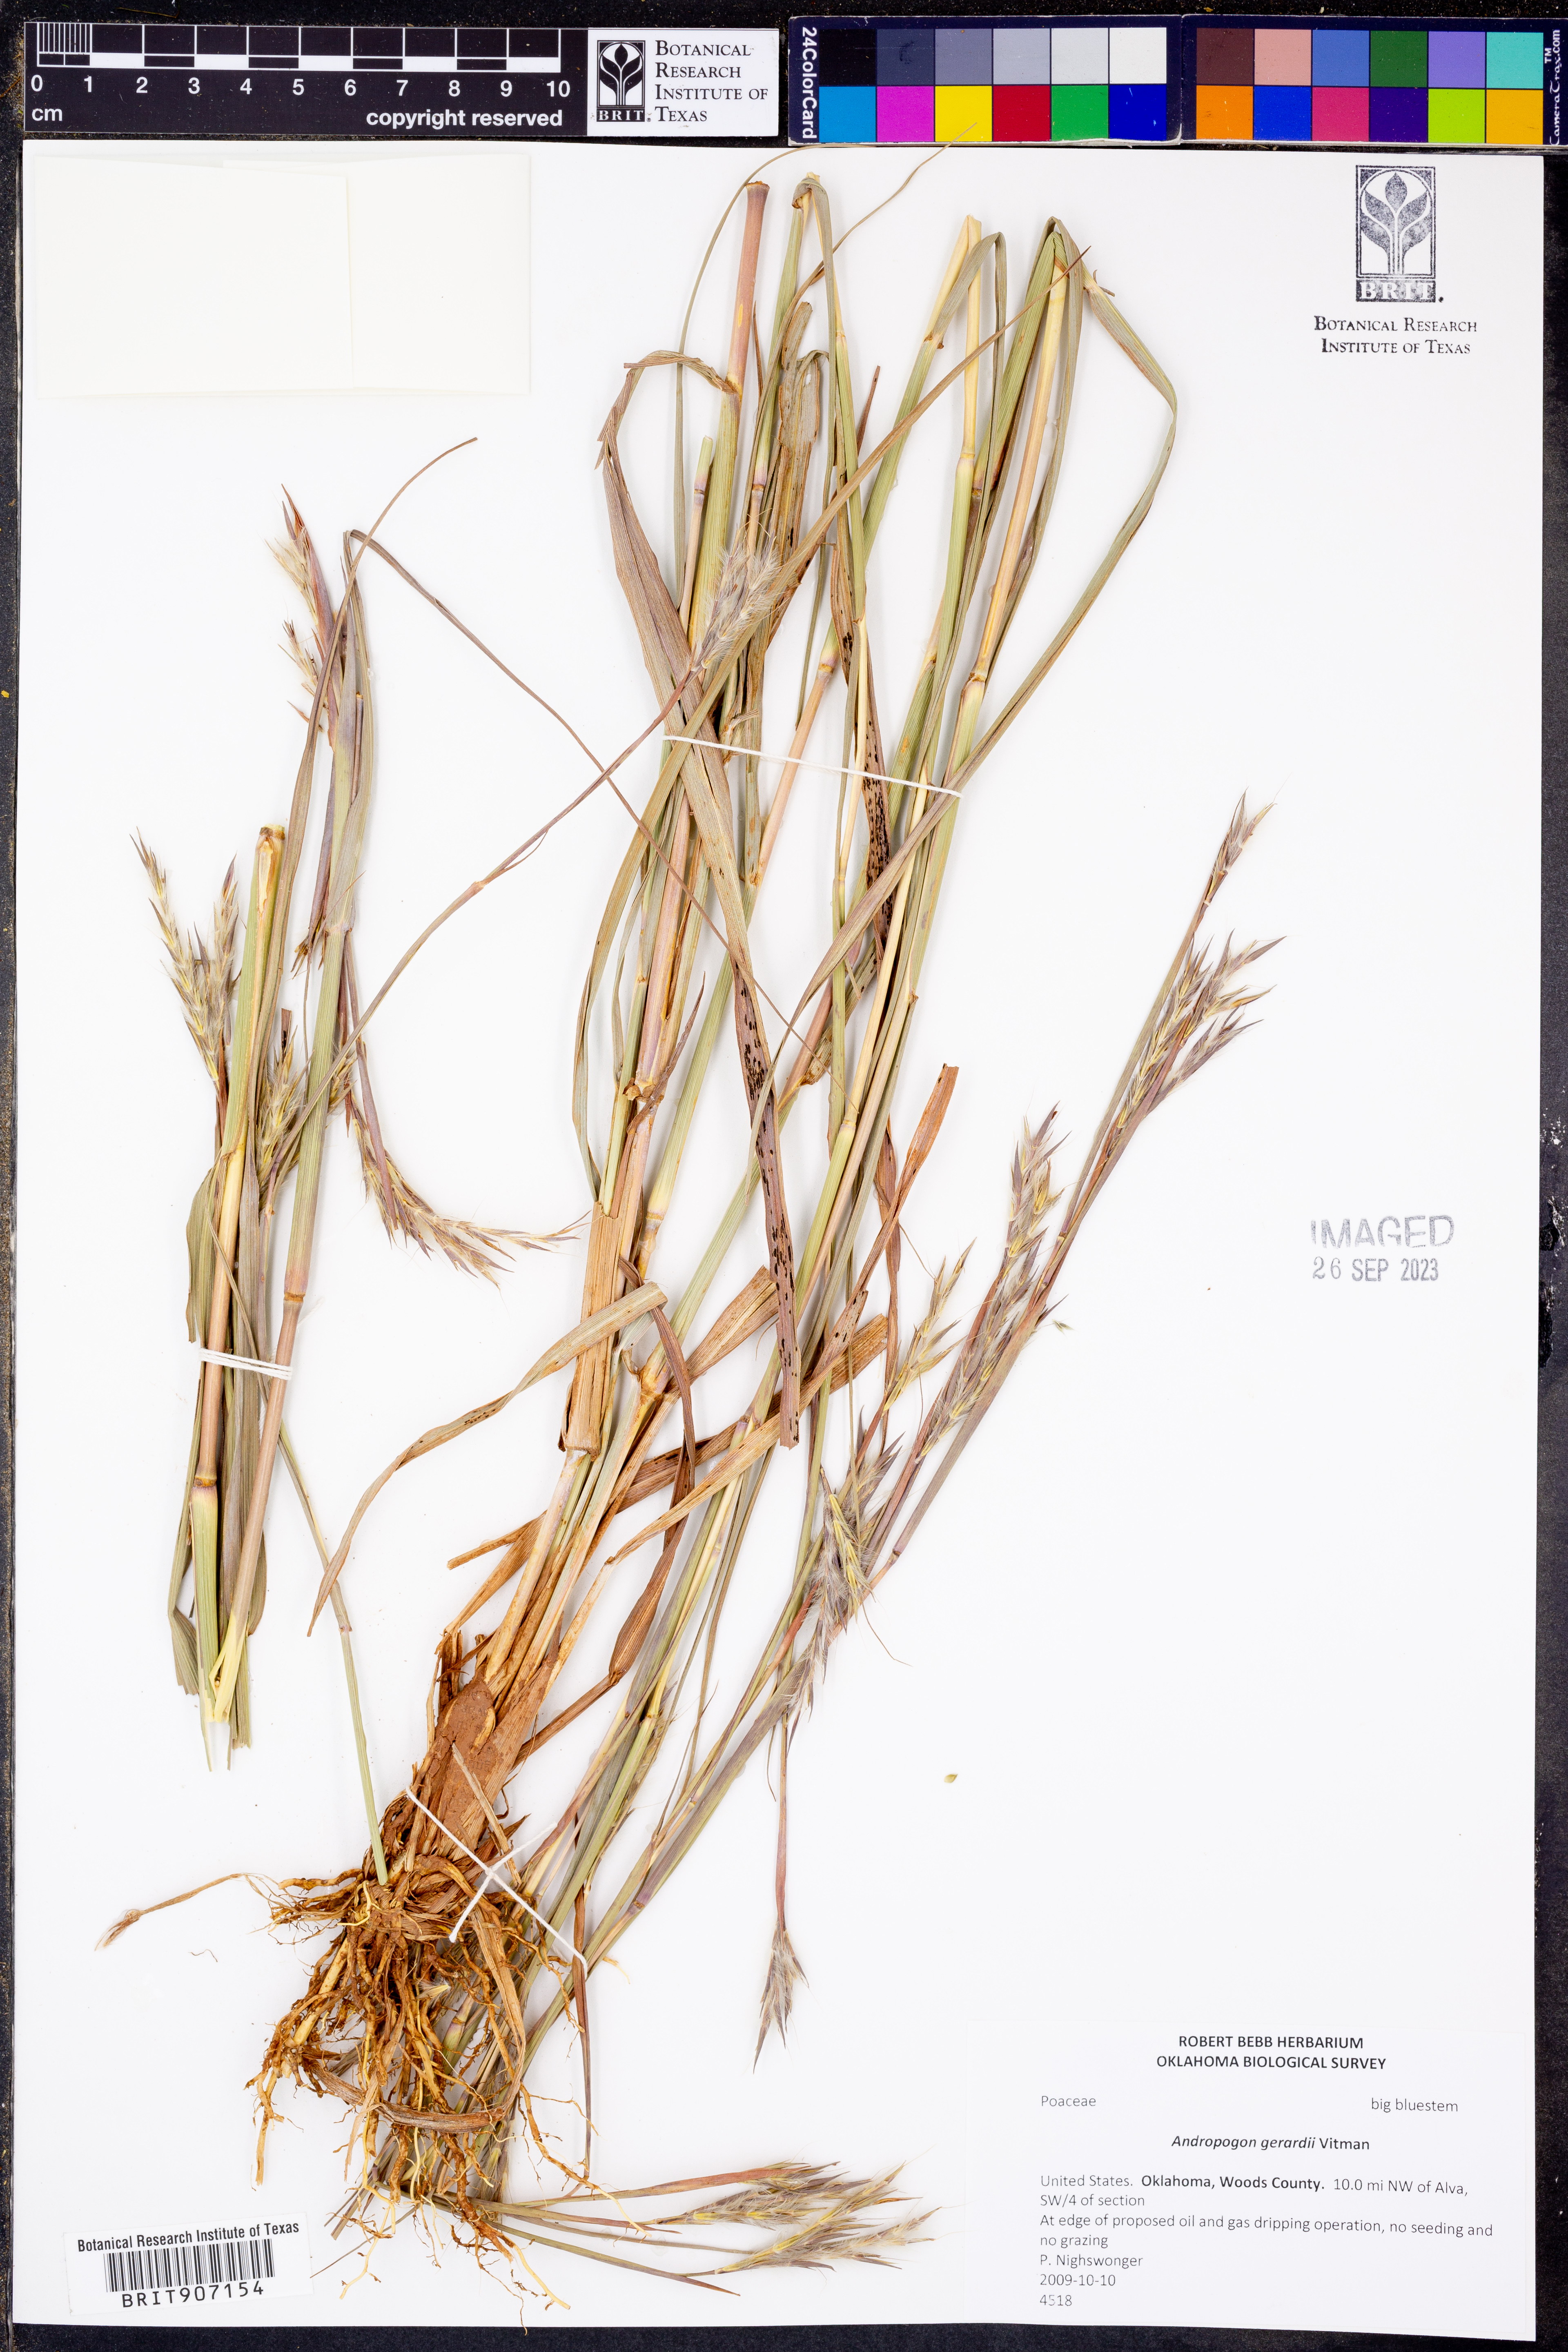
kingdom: Plantae
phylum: Tracheophyta
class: Liliopsida
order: Poales
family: Poaceae
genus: Andropogon
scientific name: Andropogon gerardi
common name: Big bluestem
